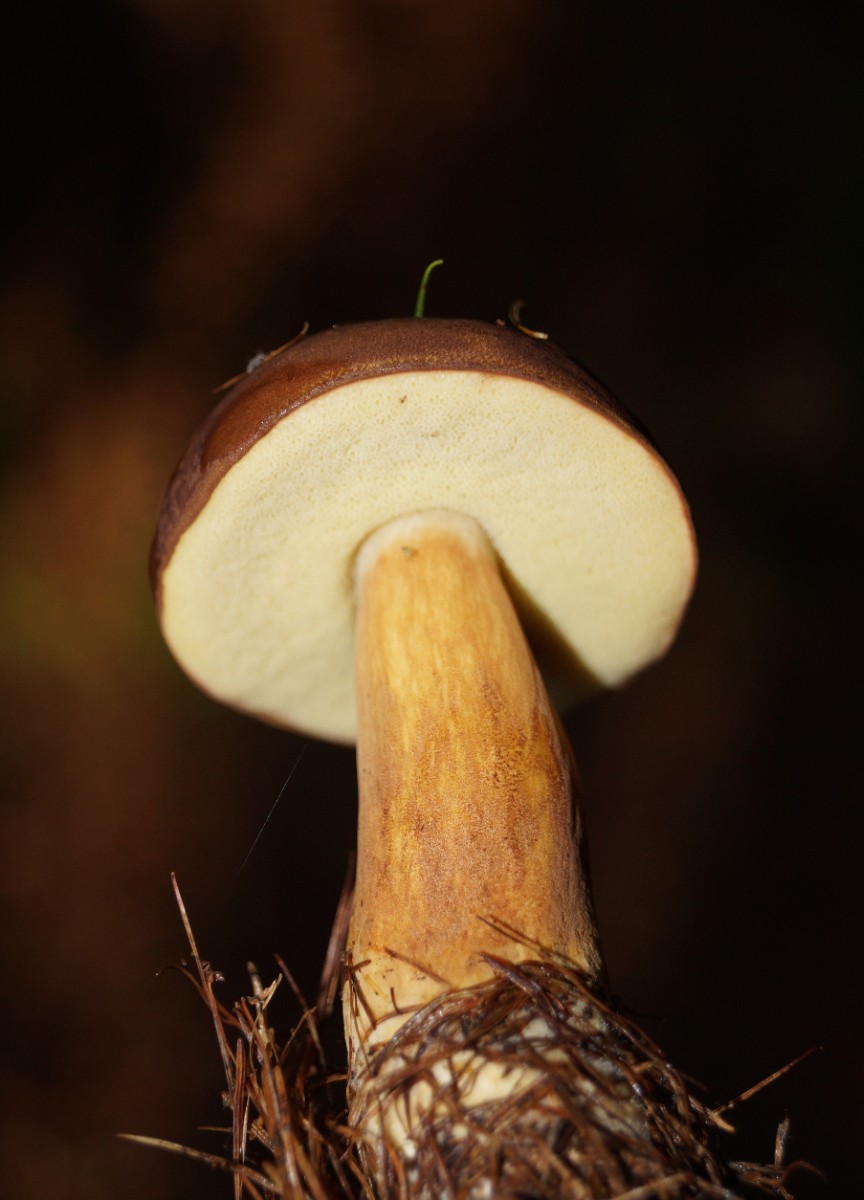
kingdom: Fungi
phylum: Basidiomycota
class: Agaricomycetes
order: Boletales
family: Boletaceae
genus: Imleria
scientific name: Imleria badia
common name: brunstokket rørhat
